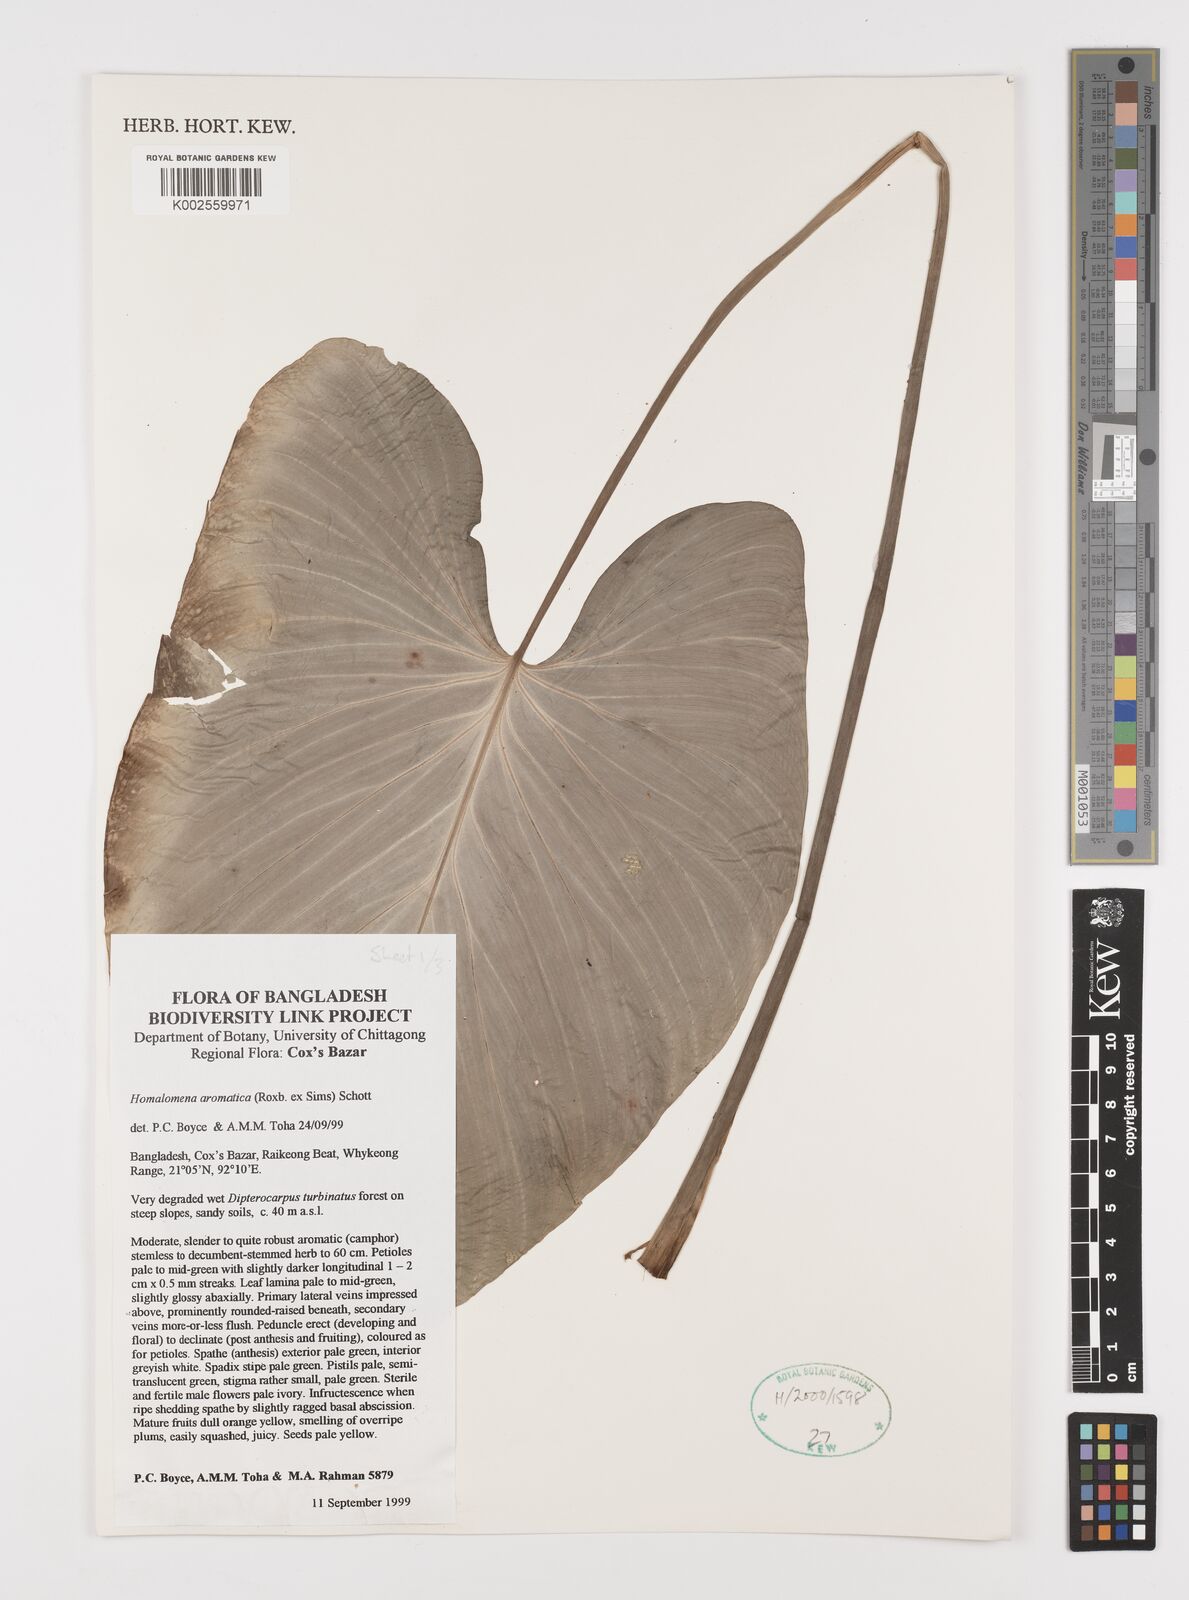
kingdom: Plantae
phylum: Tracheophyta
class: Liliopsida
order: Alismatales
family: Araceae
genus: Homalomena
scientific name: Homalomena aromatica
